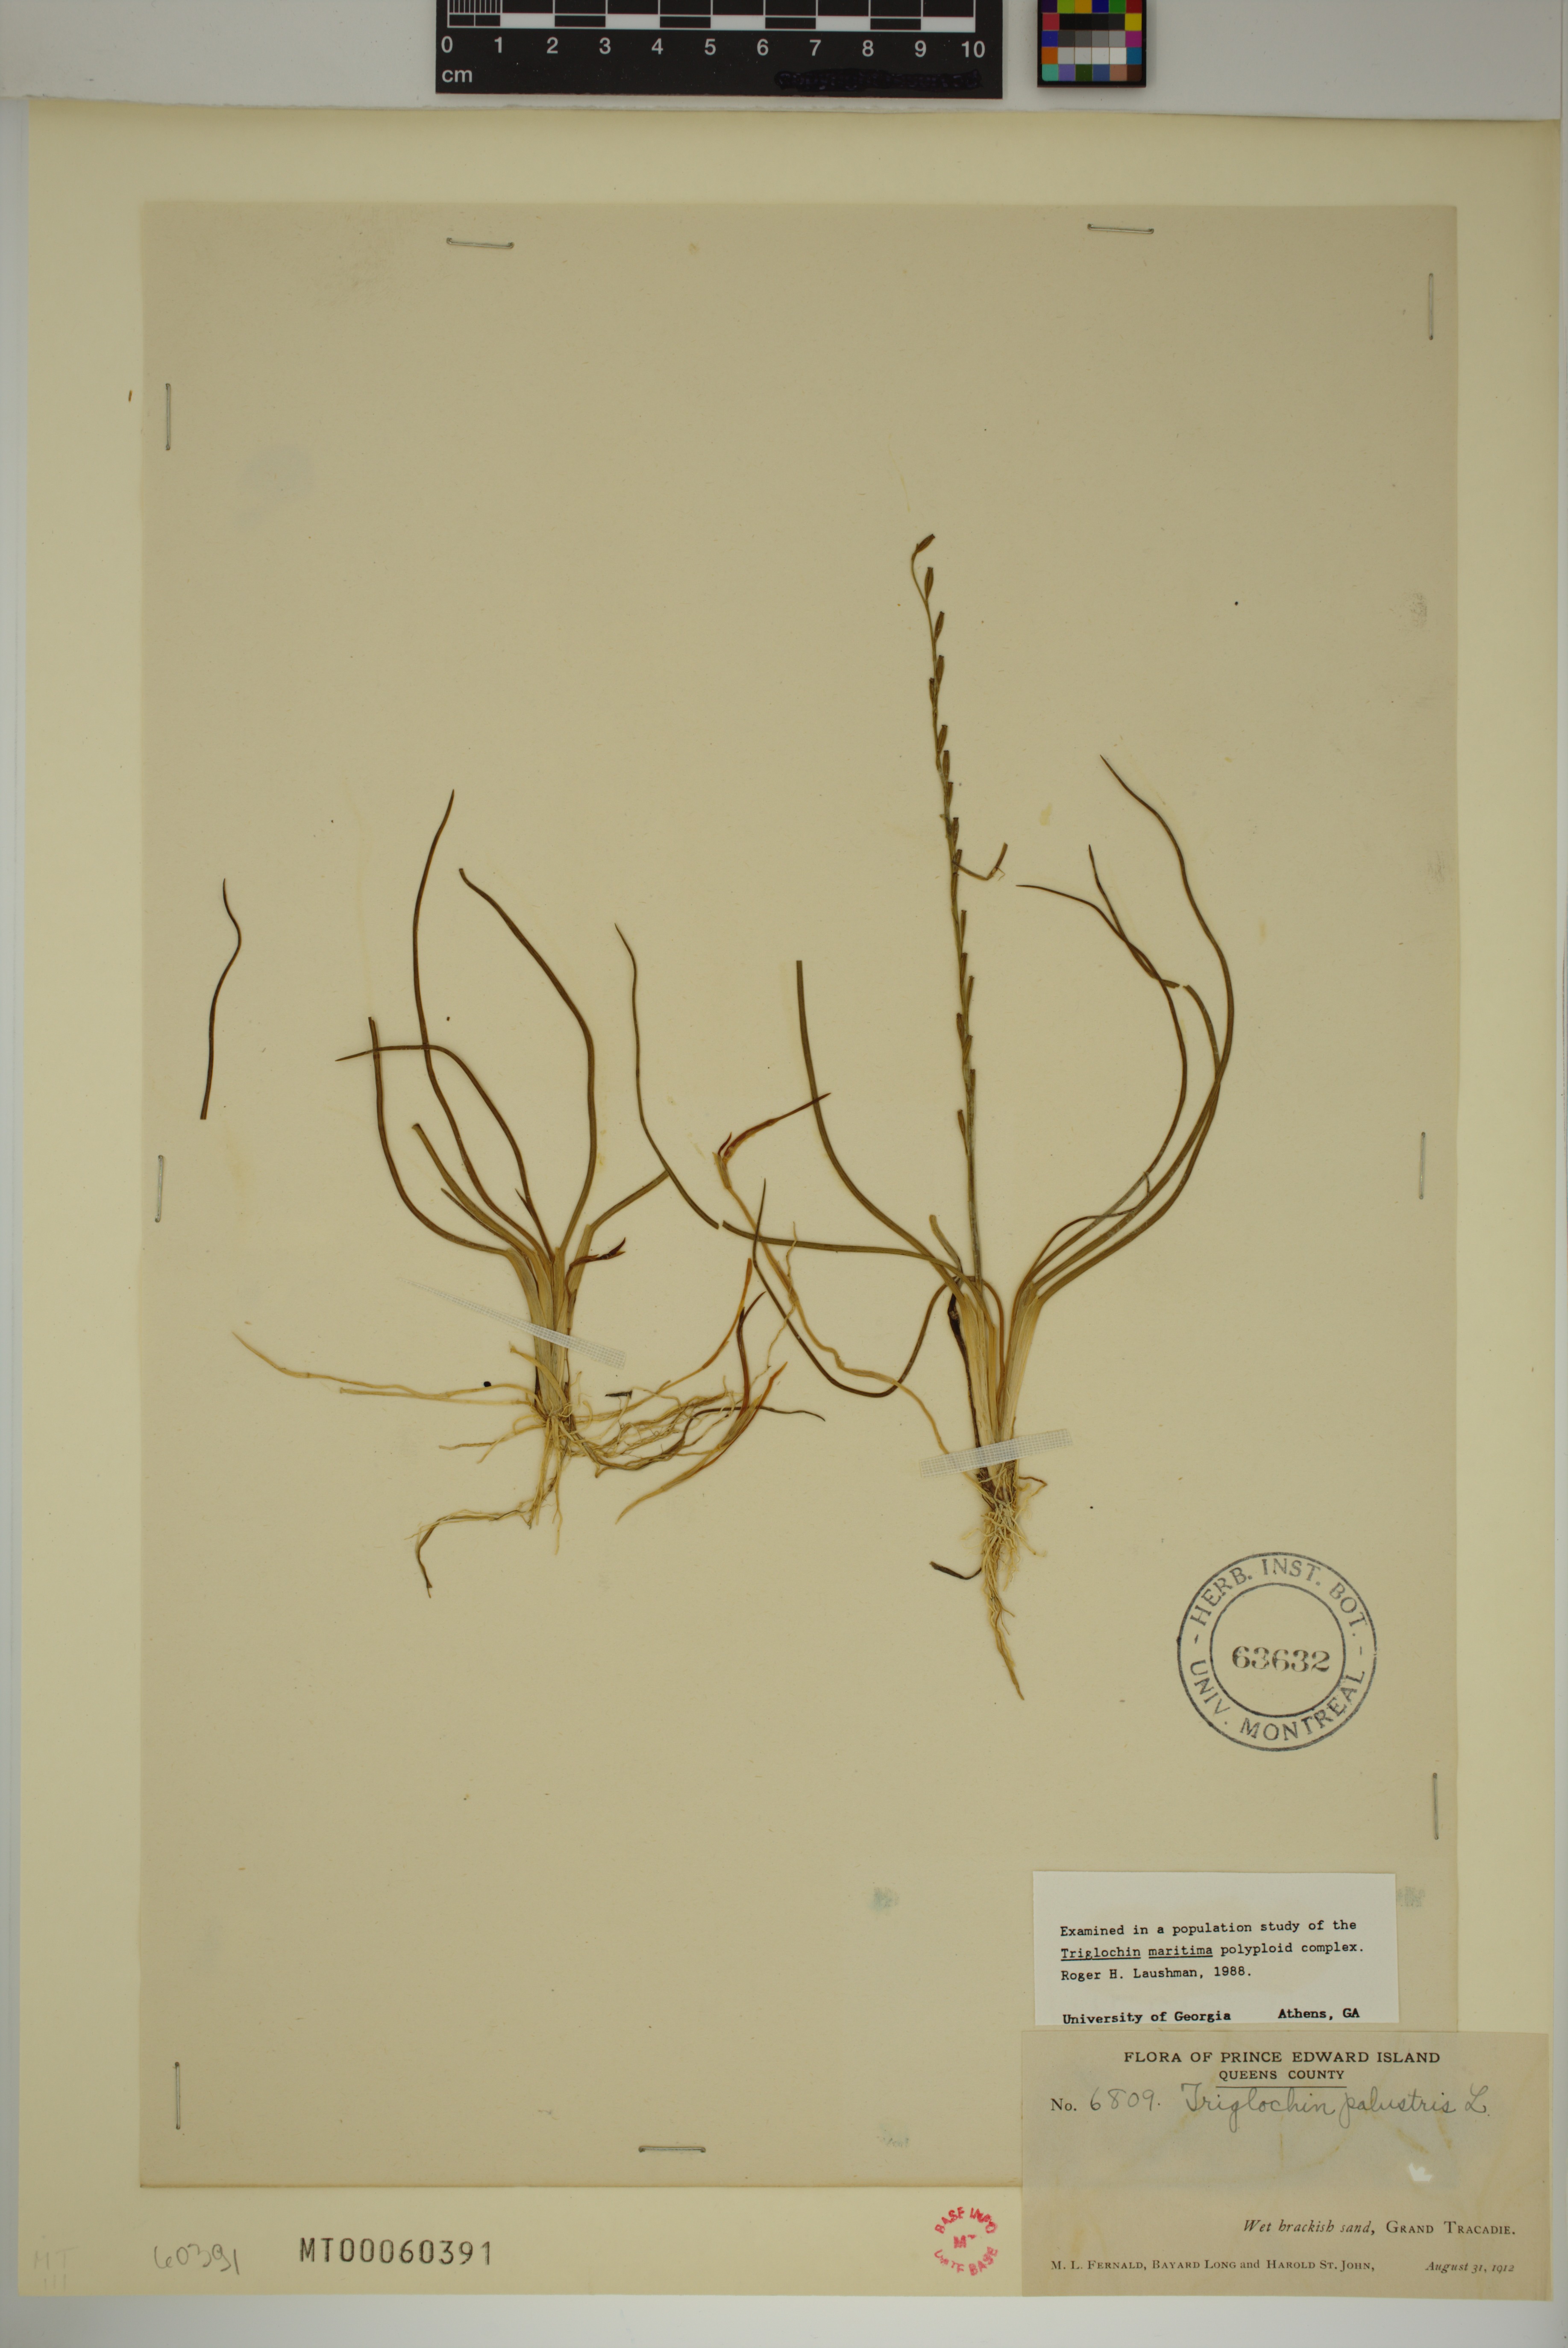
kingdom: Plantae
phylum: Tracheophyta
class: Liliopsida
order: Alismatales
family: Juncaginaceae
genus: Triglochin
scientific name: Triglochin palustris
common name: Marsh arrowgrass
